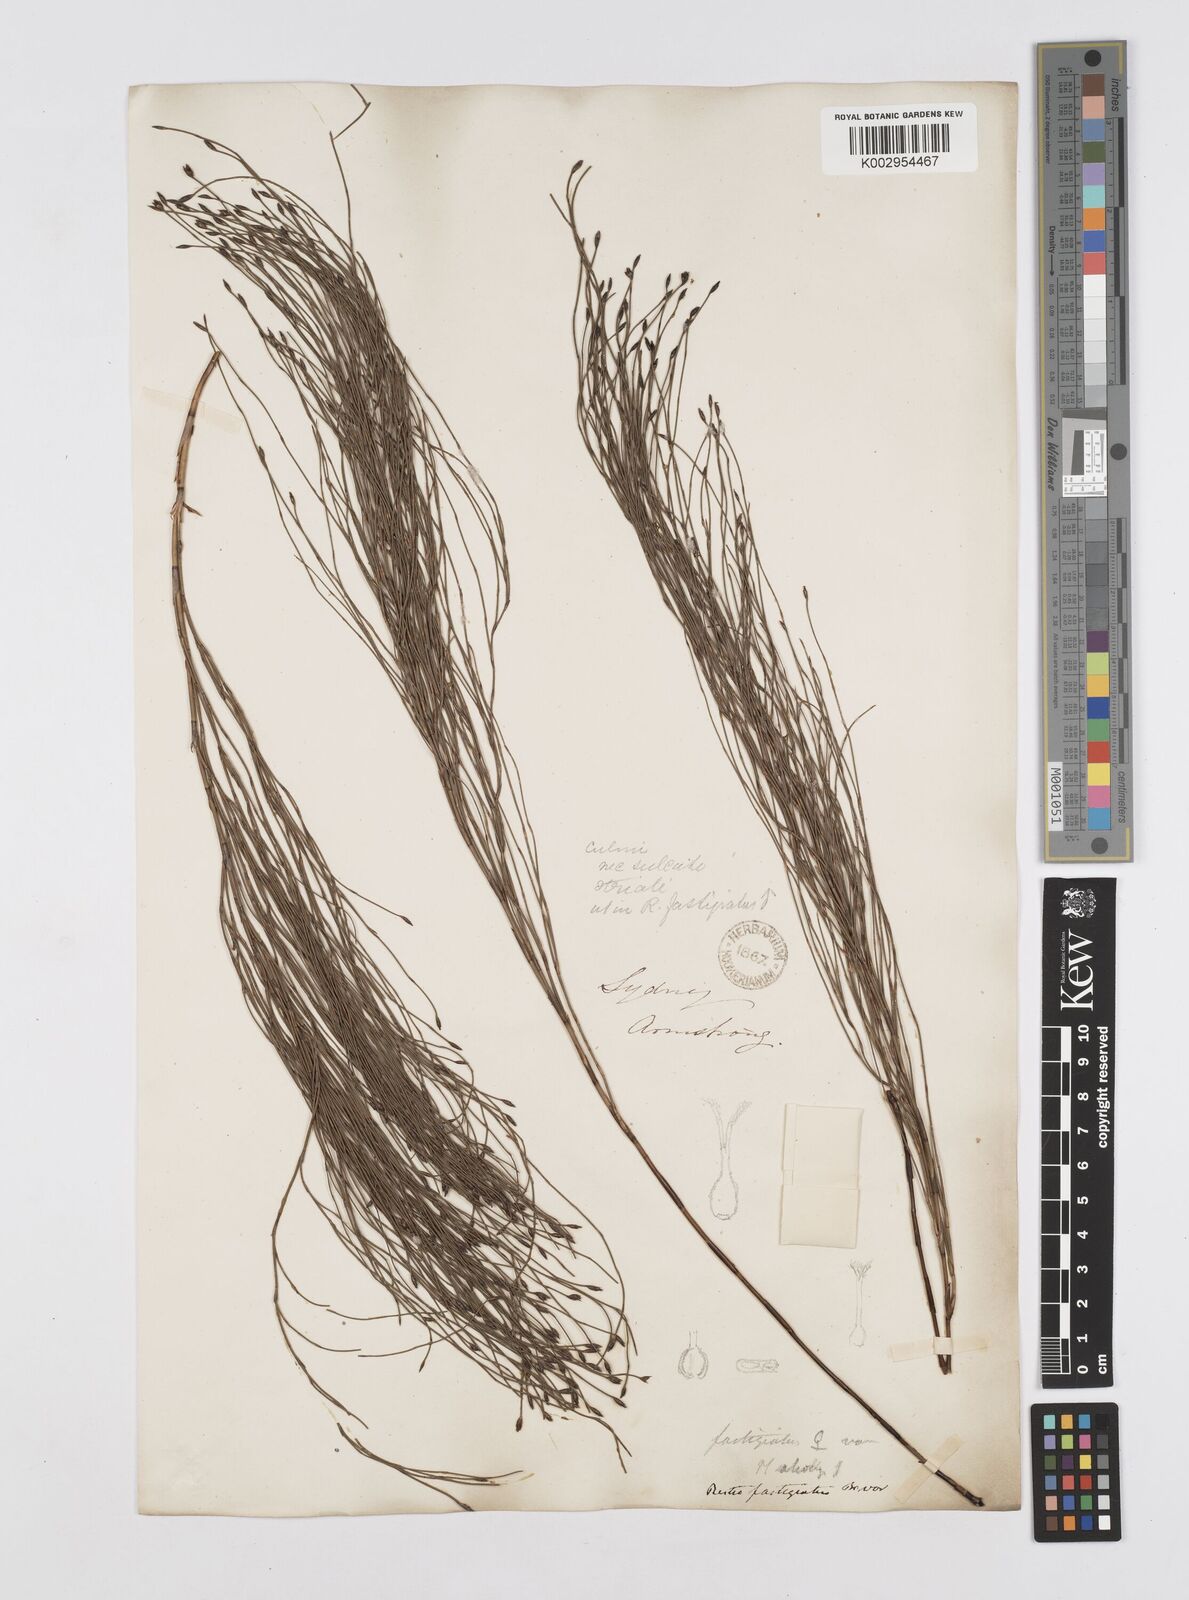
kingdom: Plantae
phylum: Tracheophyta
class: Liliopsida
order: Poales
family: Restionaceae
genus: Chordifex
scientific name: Chordifex fastigiatus
